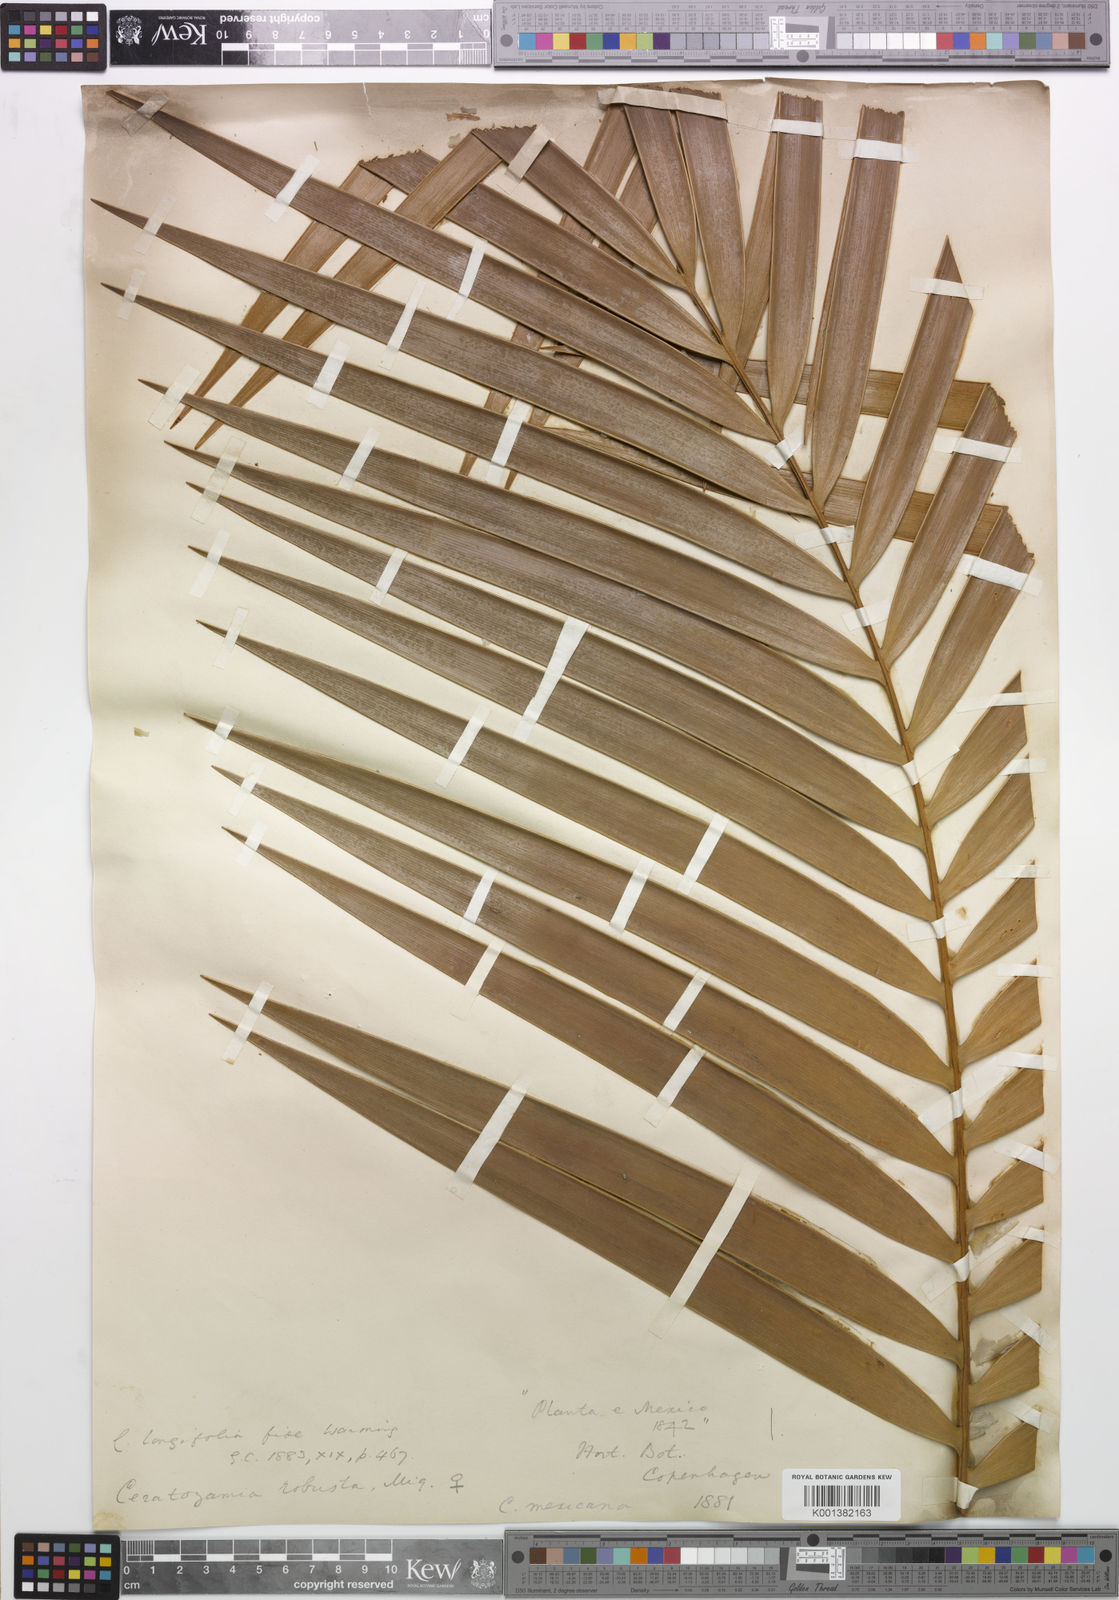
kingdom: Plantae
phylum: Tracheophyta
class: Cycadopsida
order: Cycadales
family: Zamiaceae
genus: Ceratozamia
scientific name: Ceratozamia mexicana
